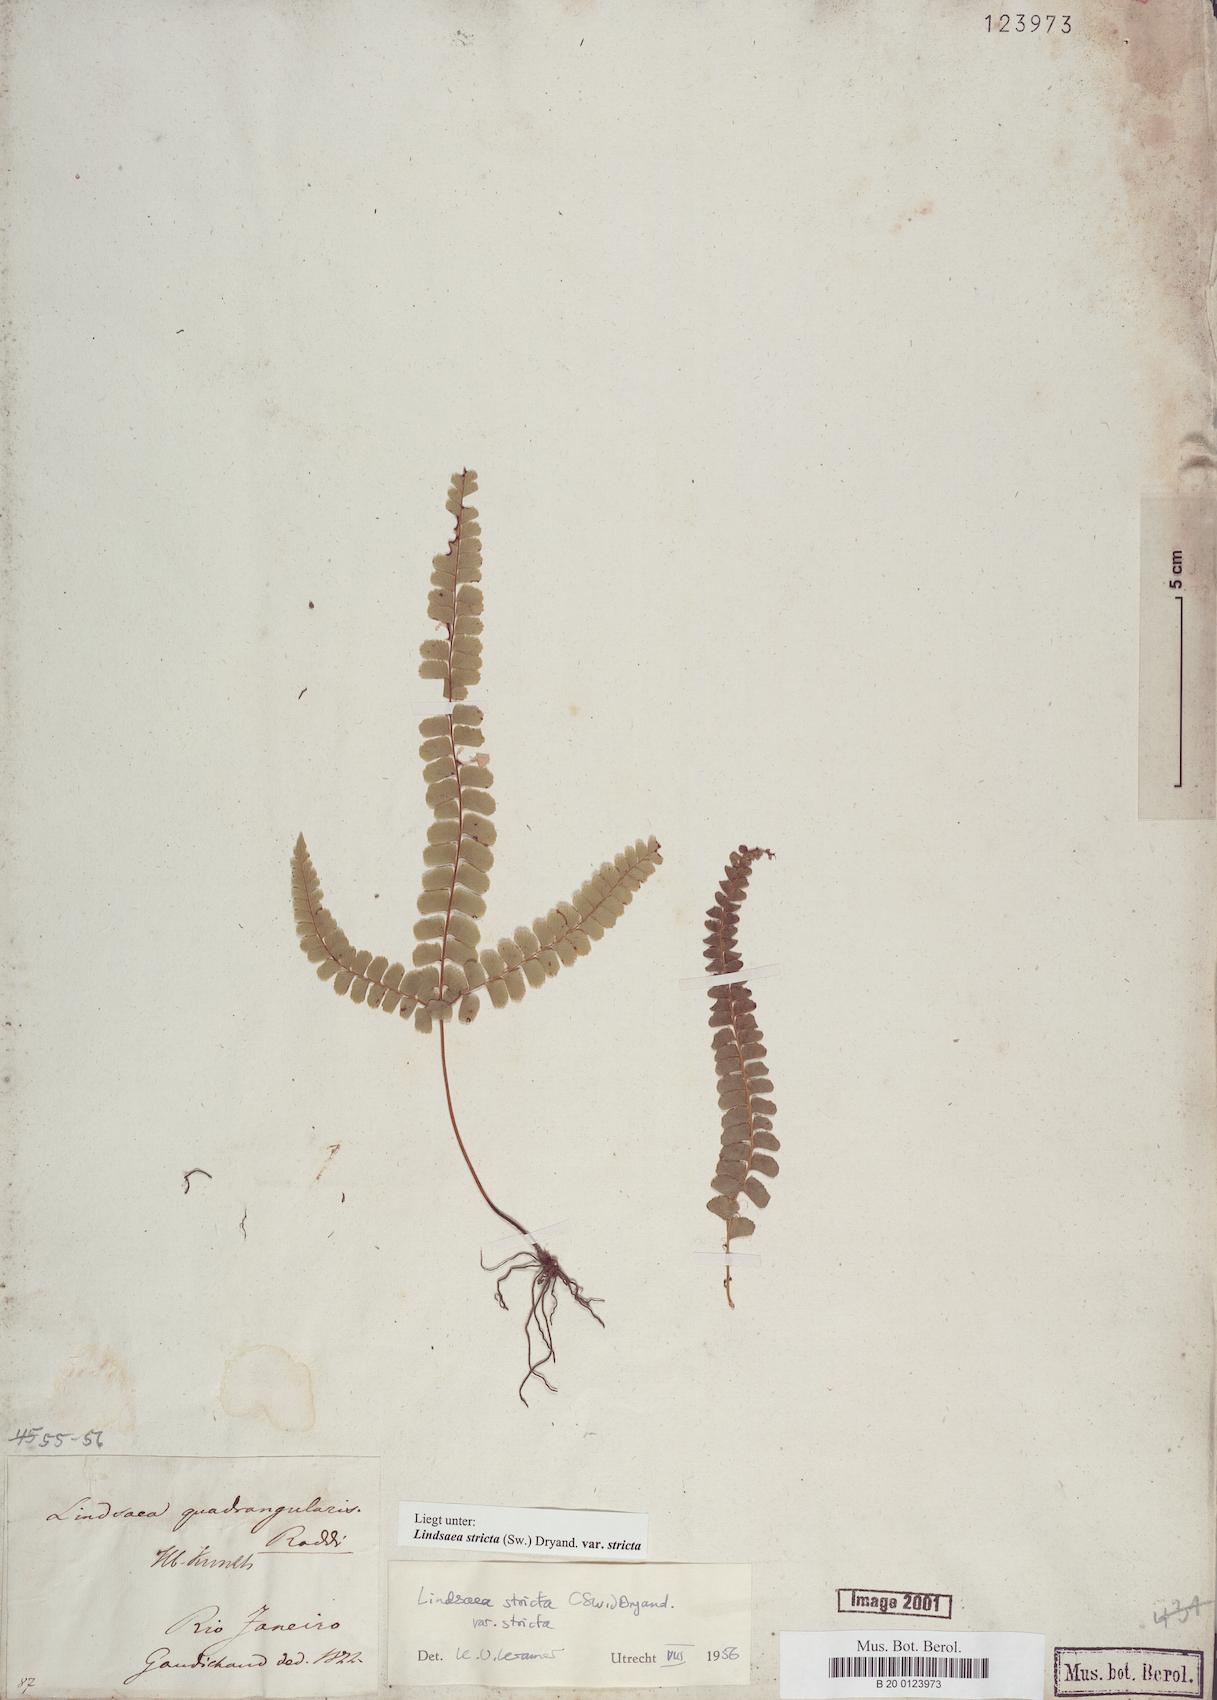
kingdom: Plantae
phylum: Tracheophyta
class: Polypodiopsida
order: Polypodiales
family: Lindsaeaceae
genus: Lindsaea
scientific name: Lindsaea stricta
